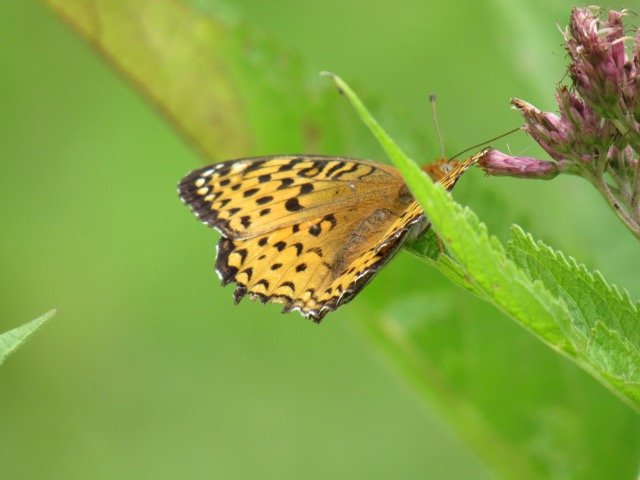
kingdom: Animalia
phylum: Arthropoda
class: Insecta
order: Lepidoptera
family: Nymphalidae
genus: Speyeria
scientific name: Speyeria atlantis
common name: Atlantis Fritillary
